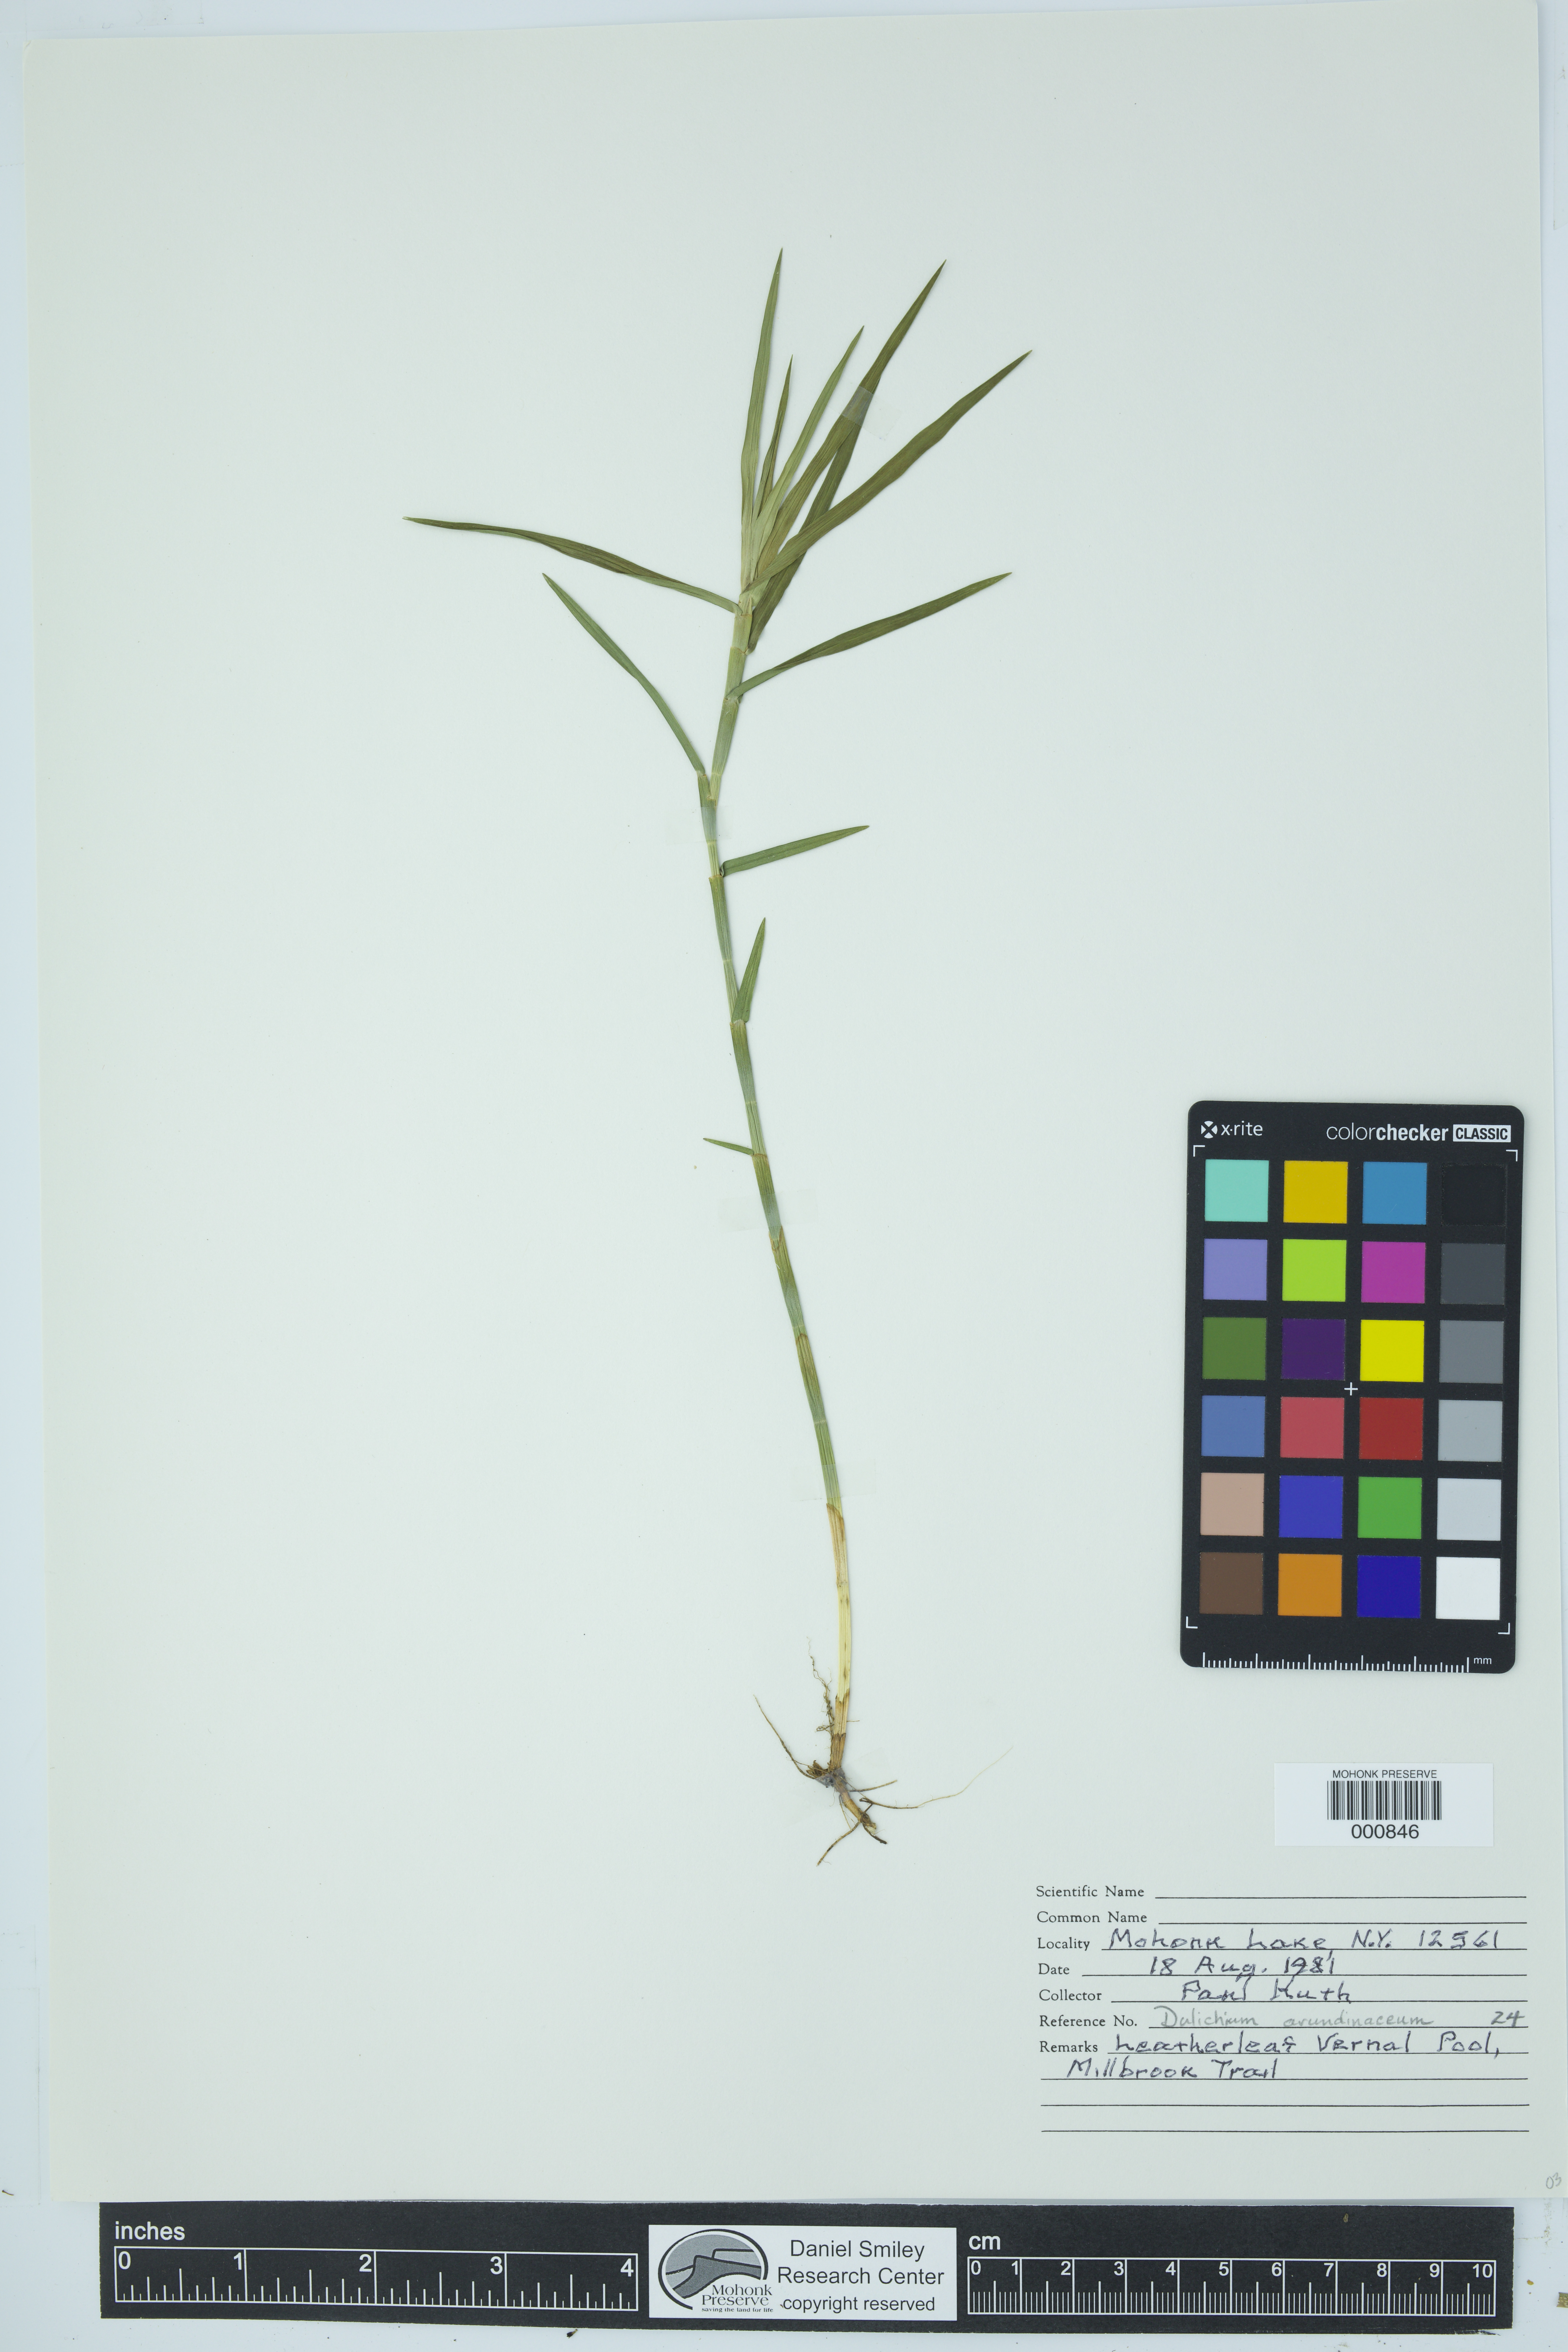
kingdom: Plantae
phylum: Tracheophyta
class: Liliopsida
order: Poales
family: Cyperaceae
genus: Dulichium
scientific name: Dulichium arundinaceum
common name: Three-way sedge
